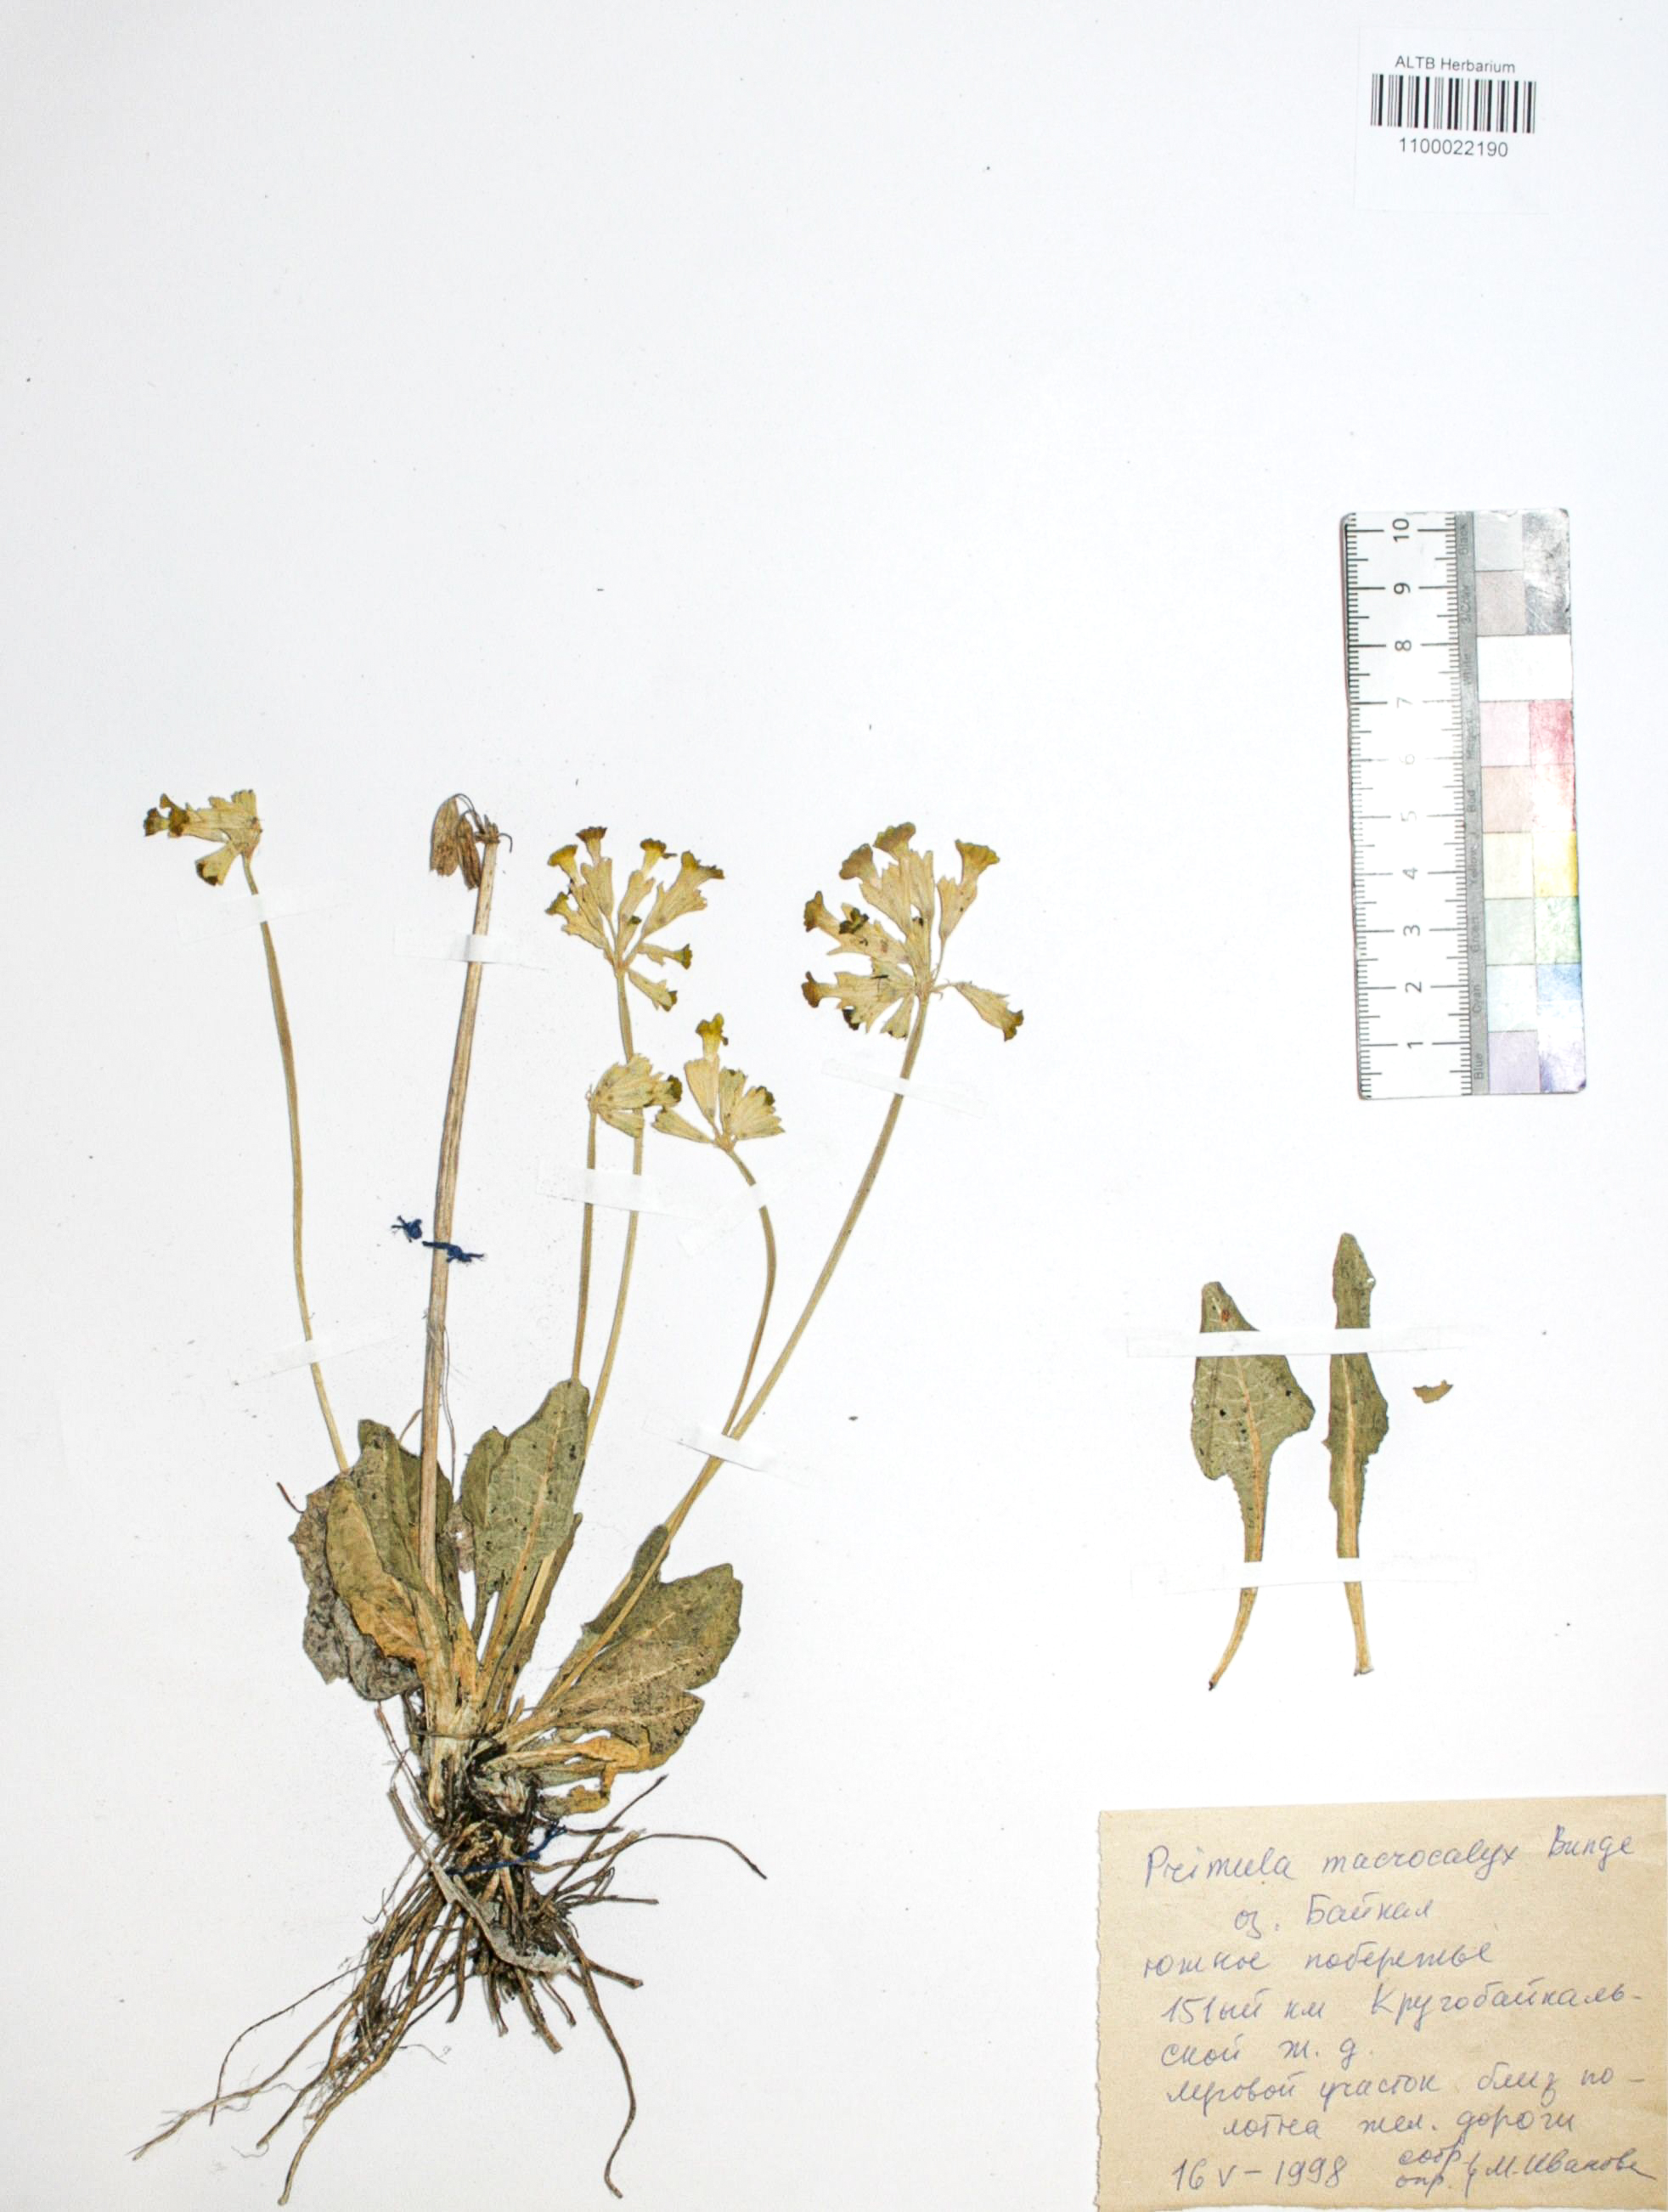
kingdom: Plantae
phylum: Tracheophyta
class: Magnoliopsida
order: Ericales
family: Primulaceae
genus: Primula
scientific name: Primula veris
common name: Cowslip
